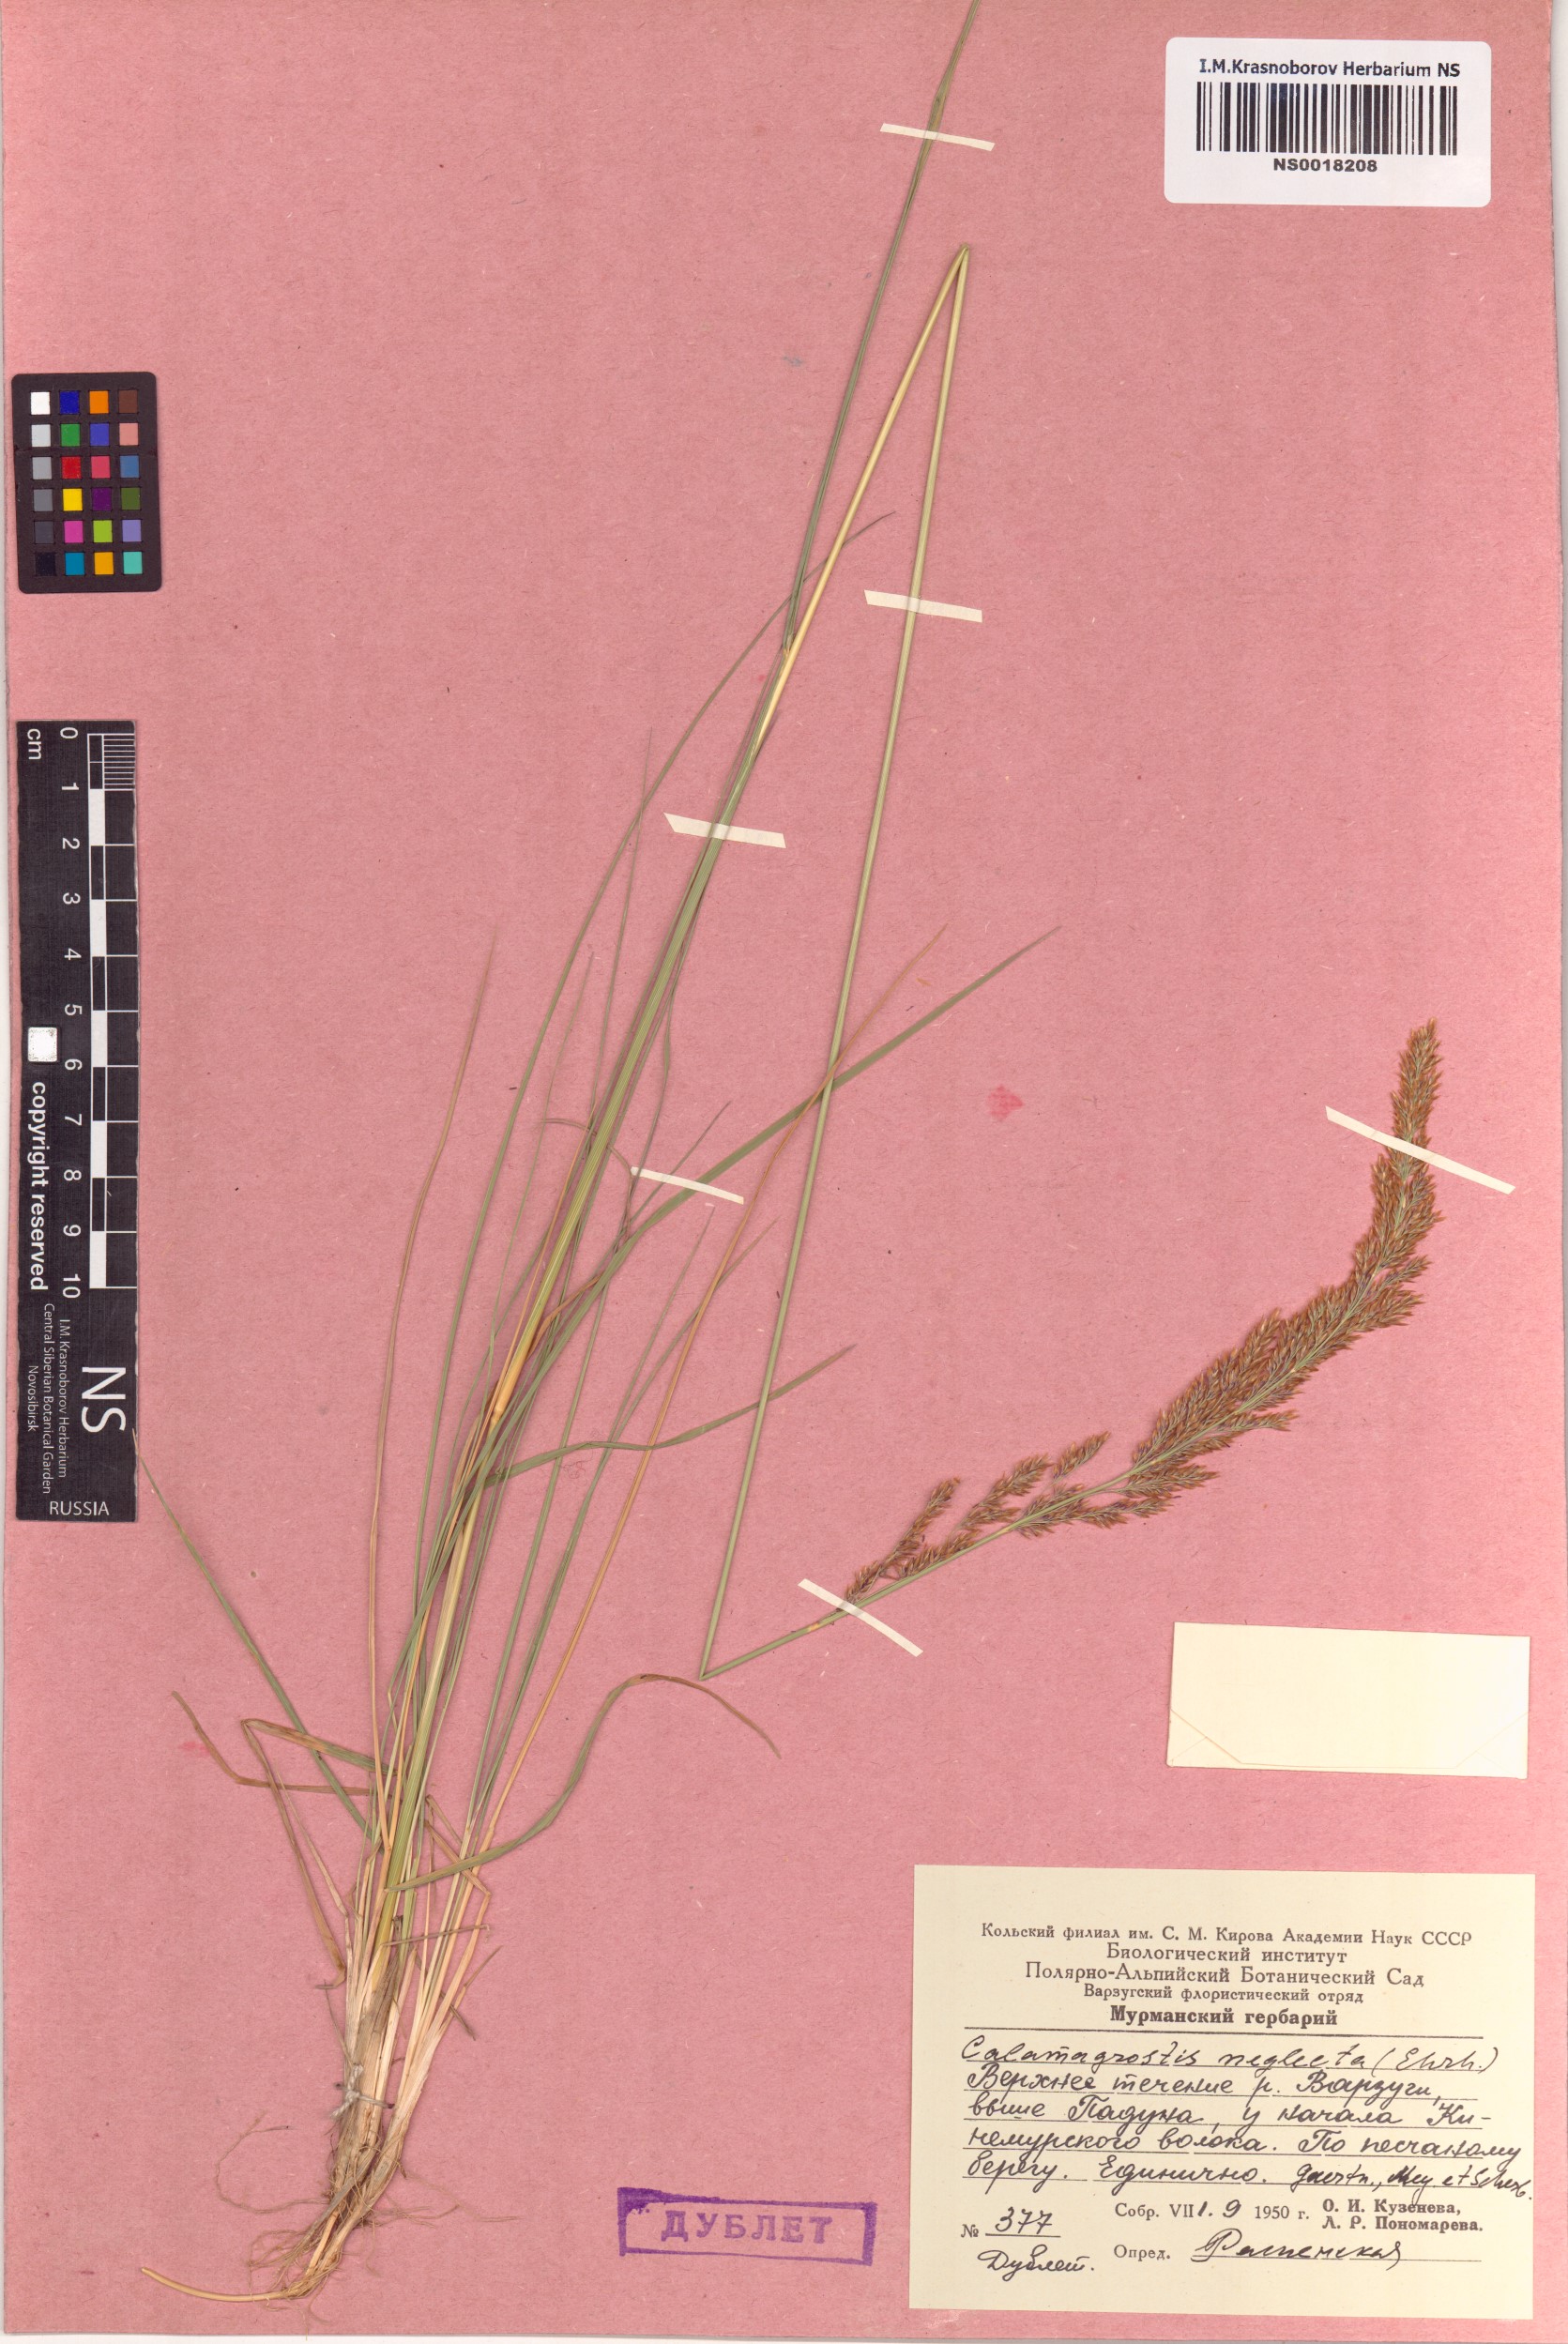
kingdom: Plantae
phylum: Tracheophyta
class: Liliopsida
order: Poales
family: Poaceae
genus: Achnatherum
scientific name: Achnatherum calamagrostis
